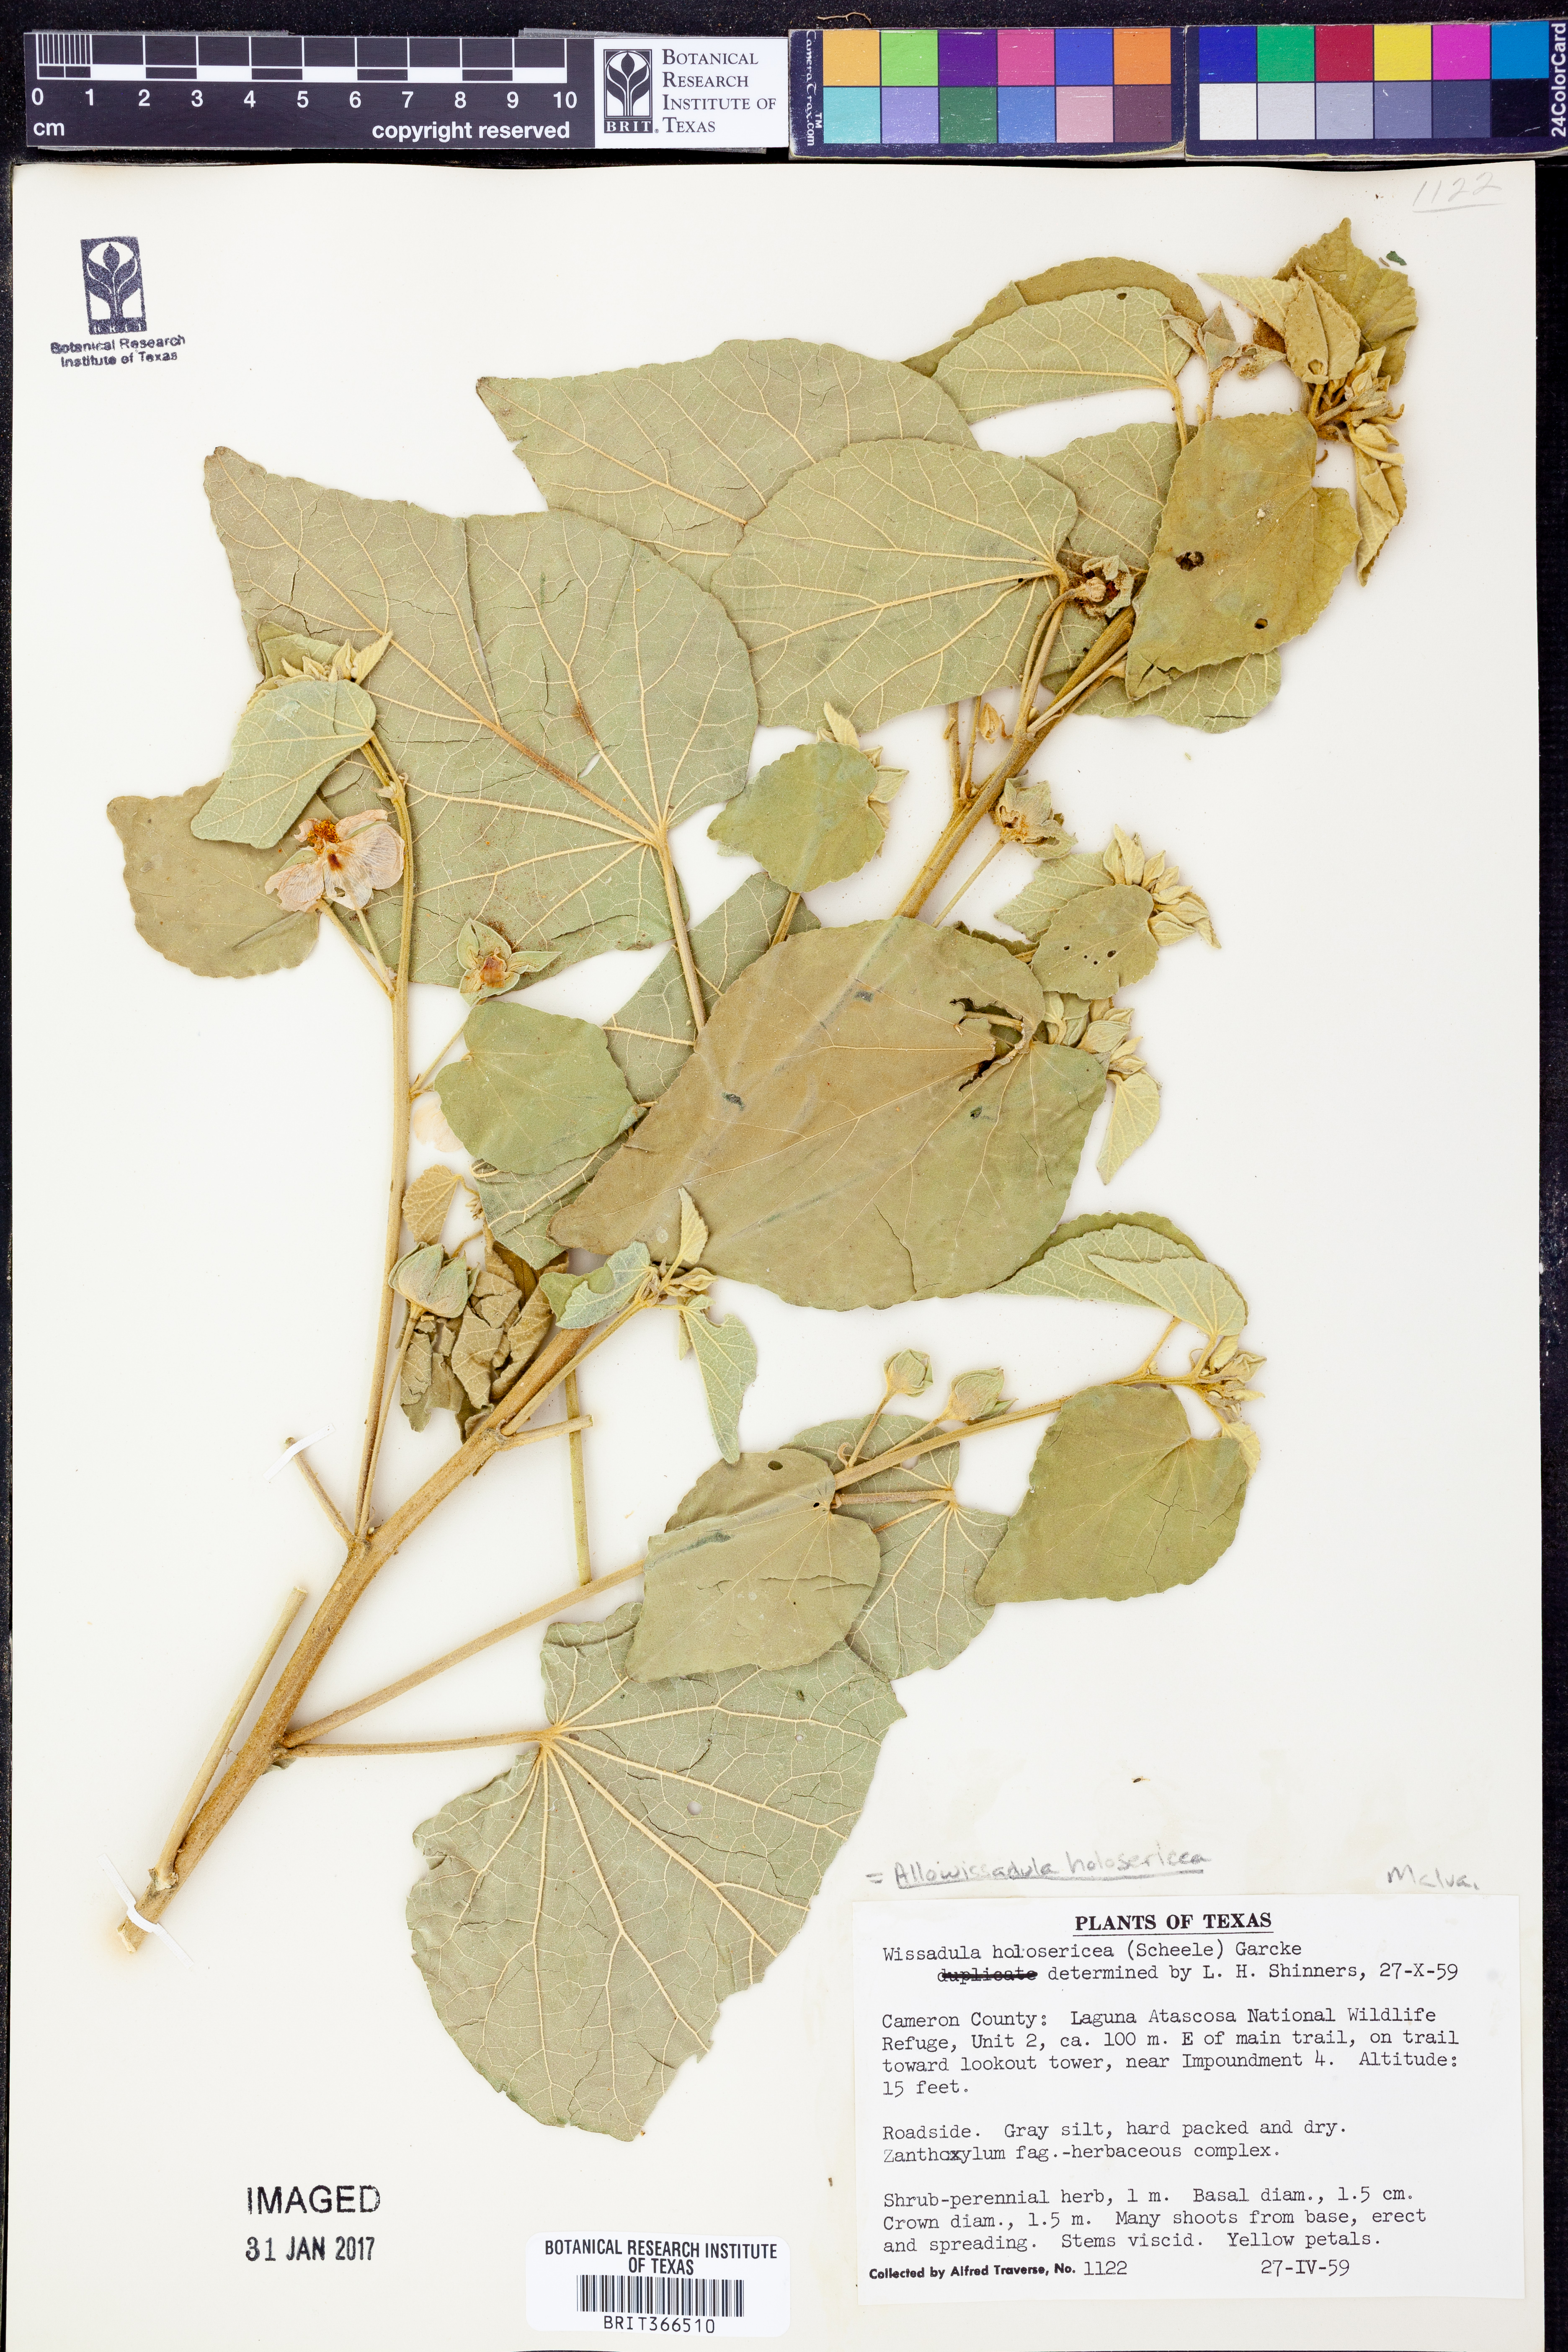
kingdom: Plantae
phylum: Tracheophyta
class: Magnoliopsida
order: Malvales
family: Malvaceae
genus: Allowissadula
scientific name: Allowissadula holosericea
